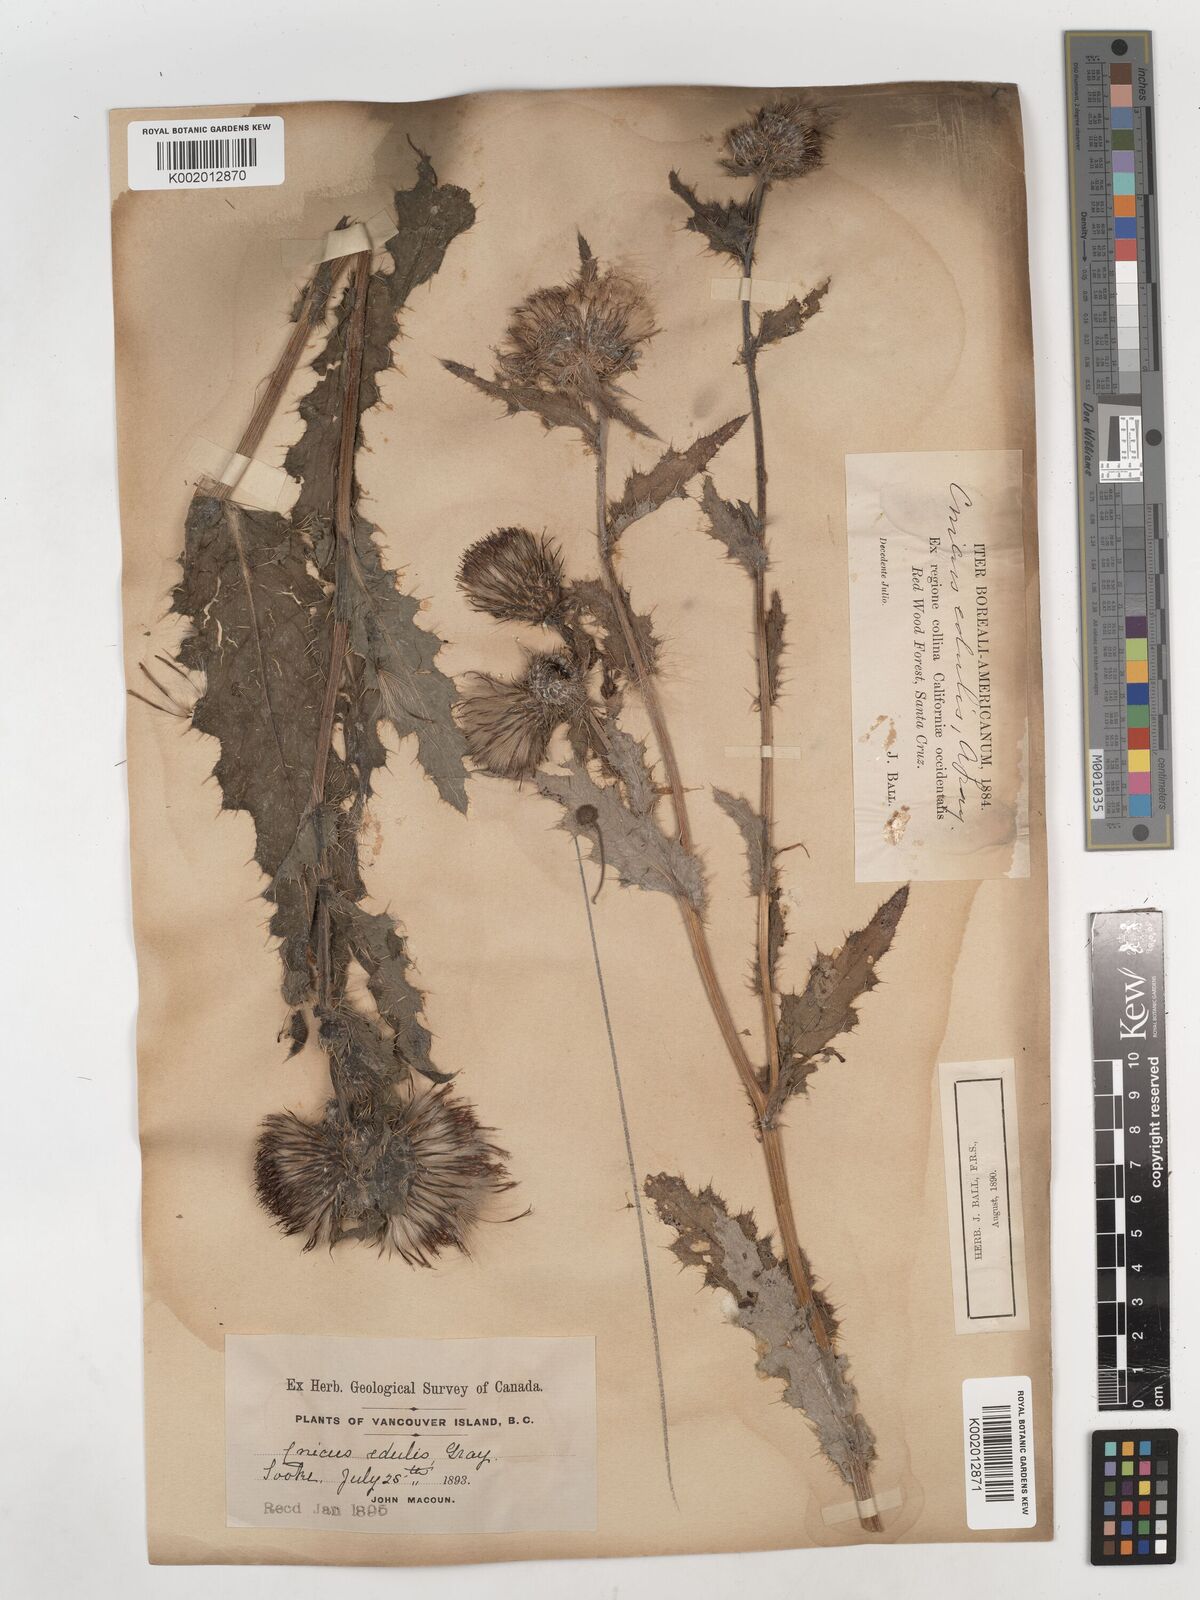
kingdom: Plantae
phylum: Tracheophyta
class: Magnoliopsida
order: Asterales
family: Asteraceae
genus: Cirsium
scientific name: Cirsium edule
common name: Indian thistle
